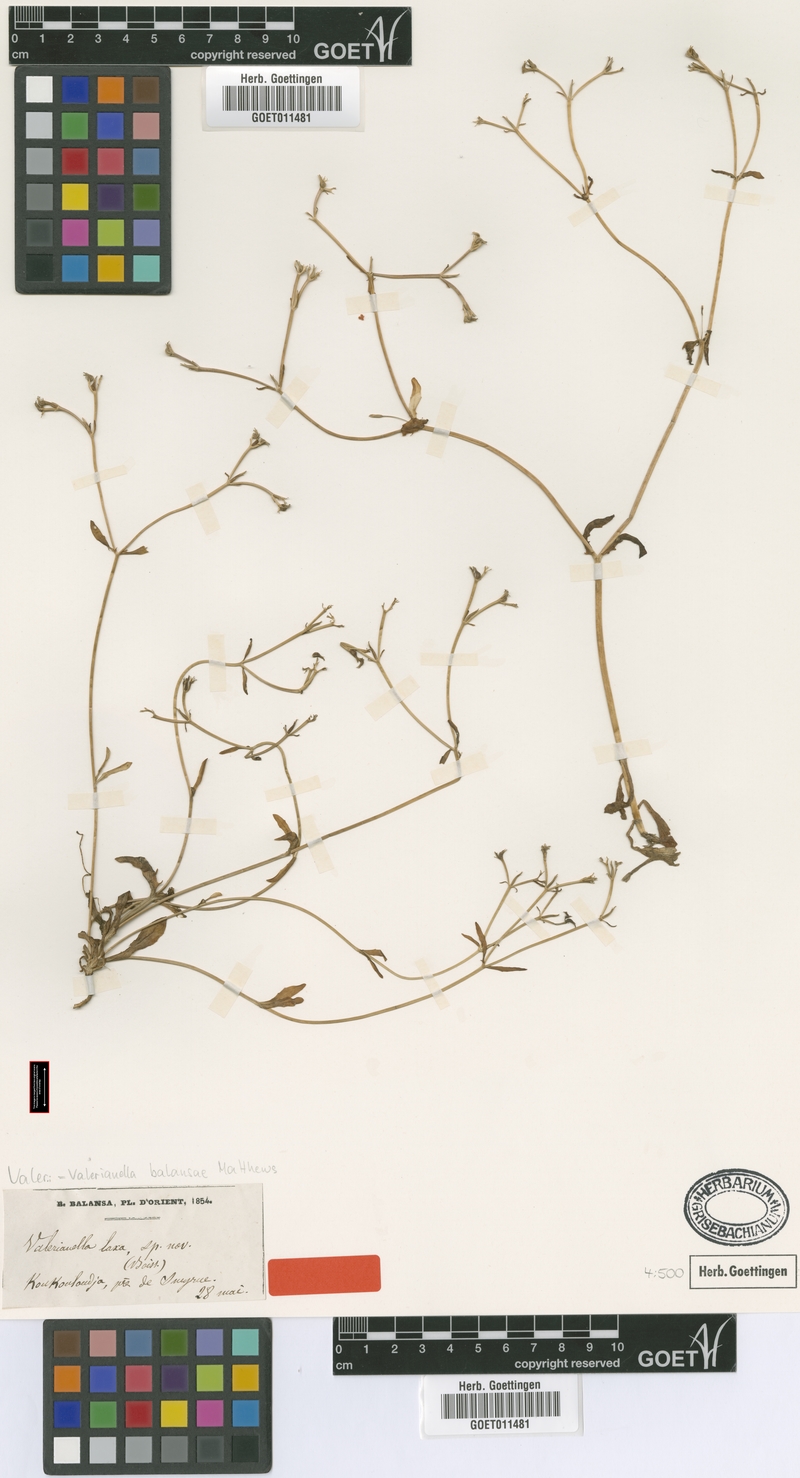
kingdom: Plantae
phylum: Tracheophyta
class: Magnoliopsida
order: Dipsacales
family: Caprifoliaceae
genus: Valerianella
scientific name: Valerianella balansae
